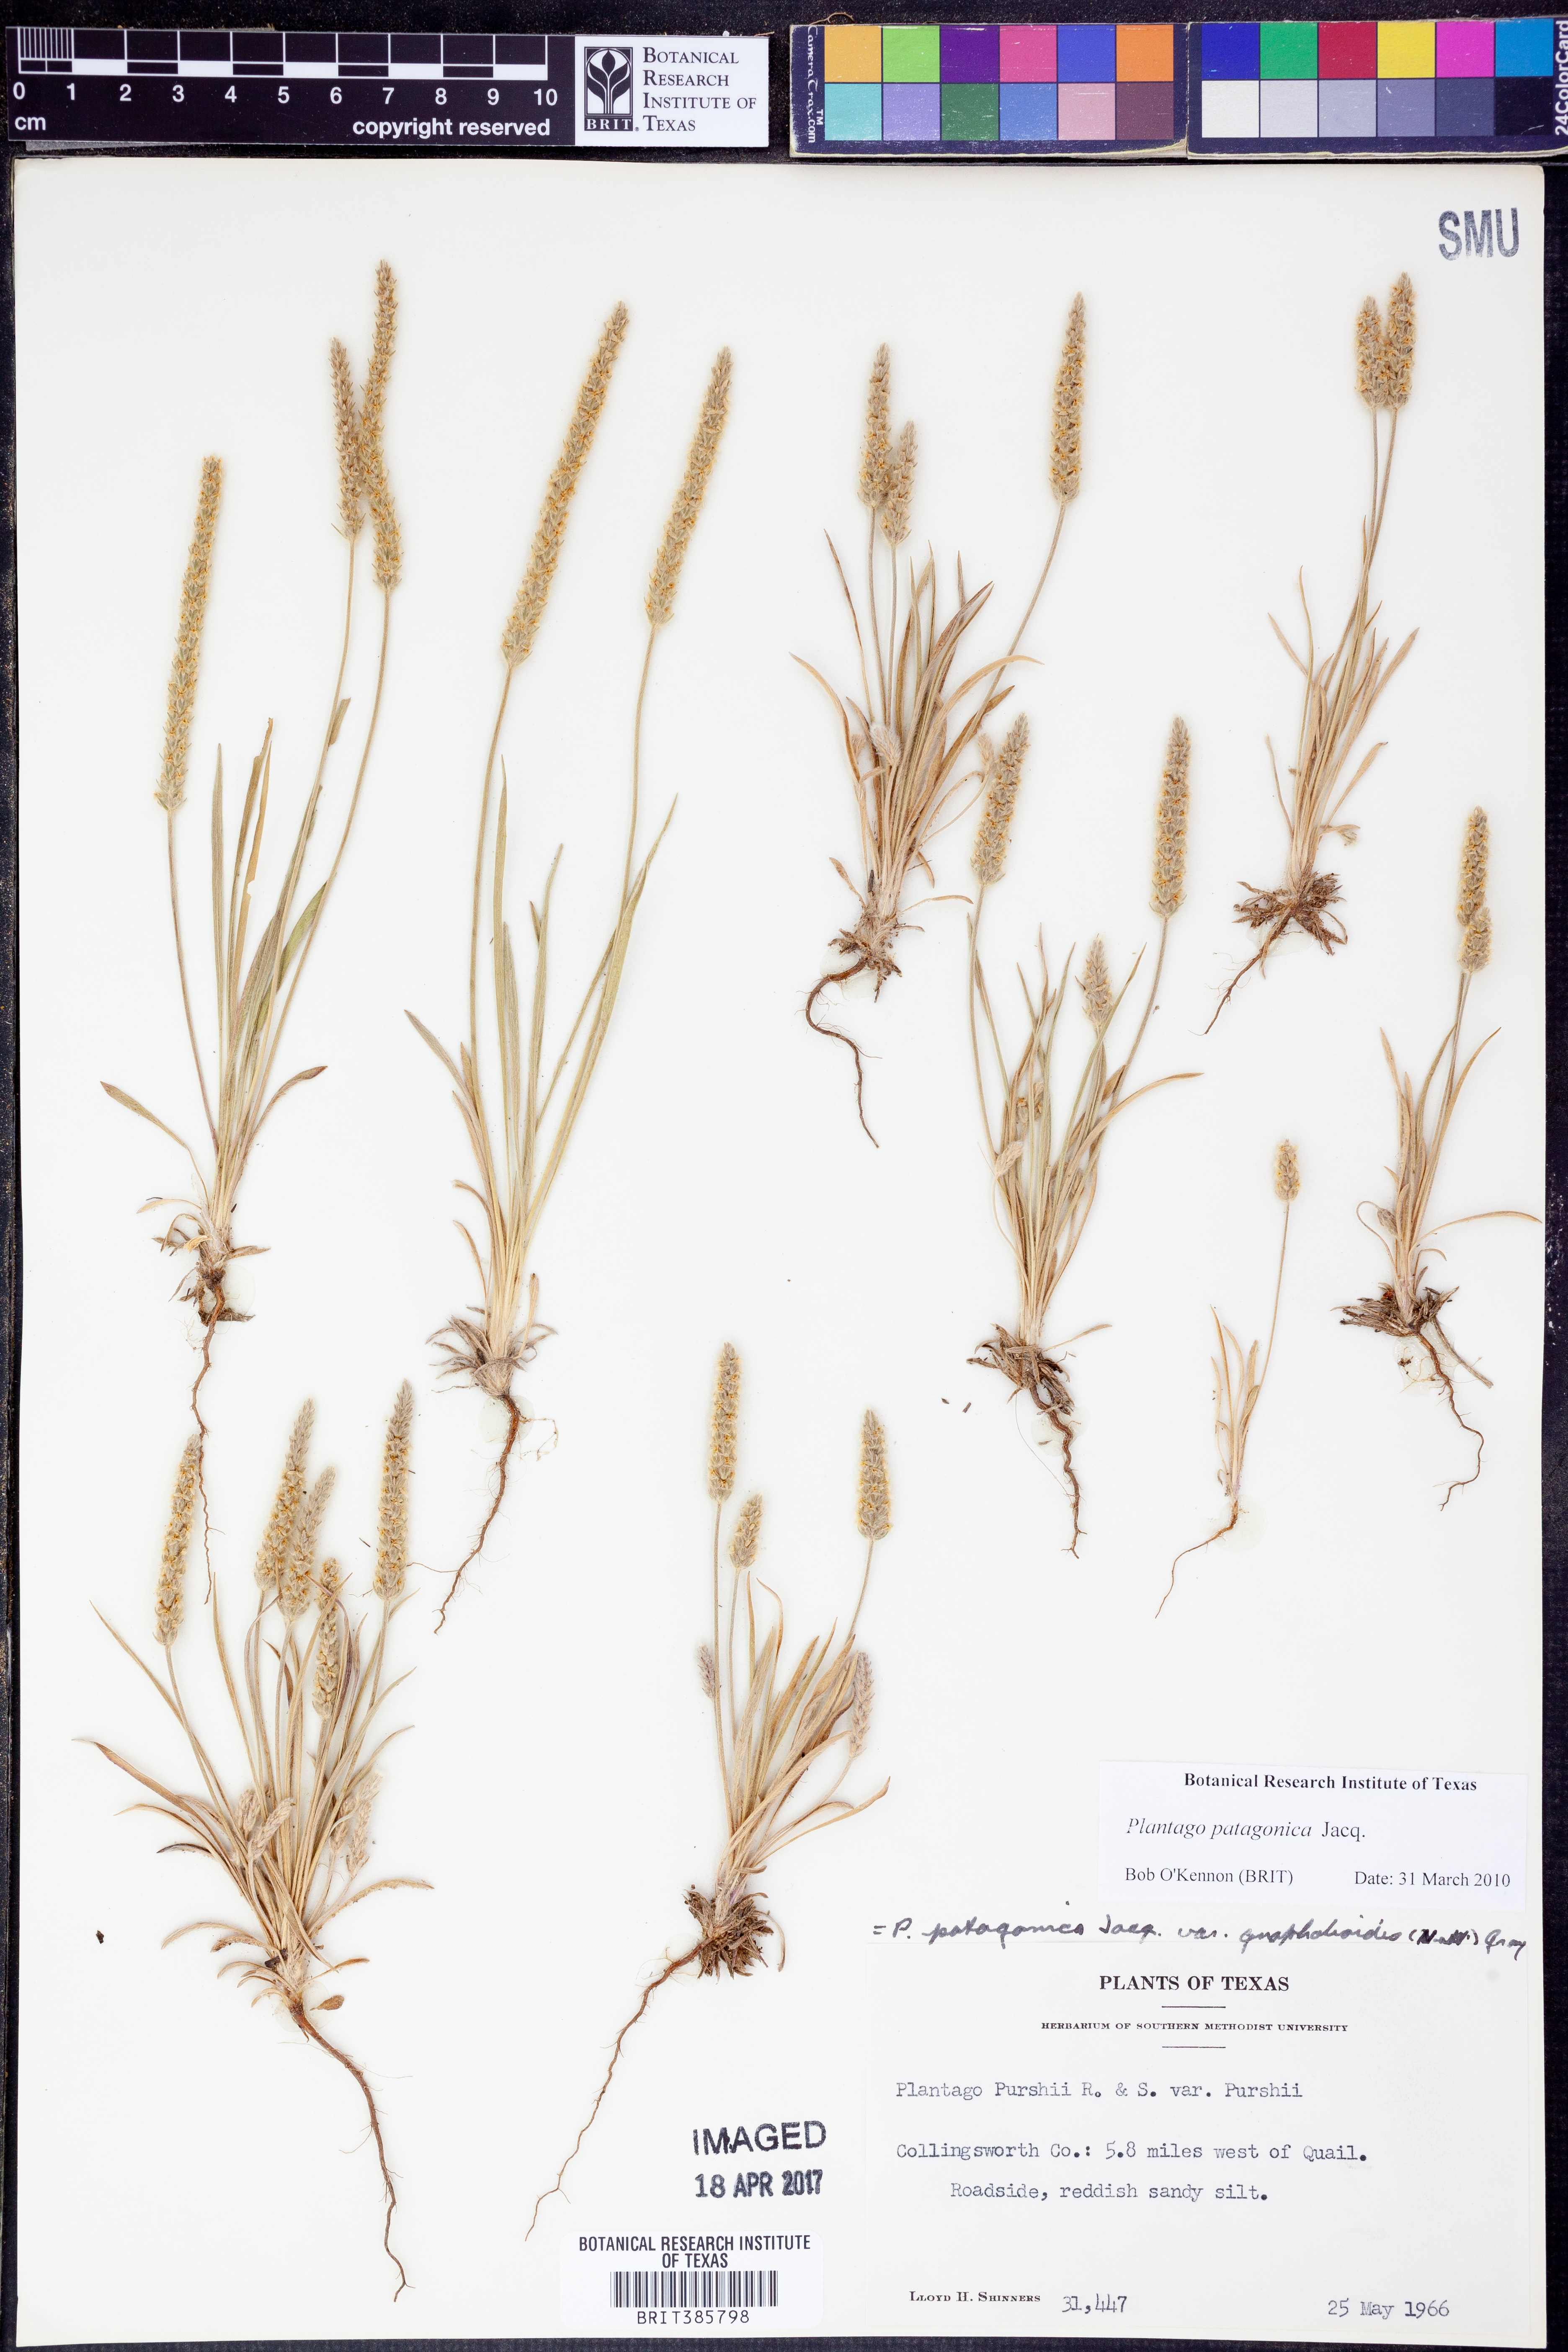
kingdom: Plantae
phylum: Tracheophyta
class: Magnoliopsida
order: Lamiales
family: Plantaginaceae
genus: Plantago
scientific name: Plantago patagonica
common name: Patagonia indian-wheat
